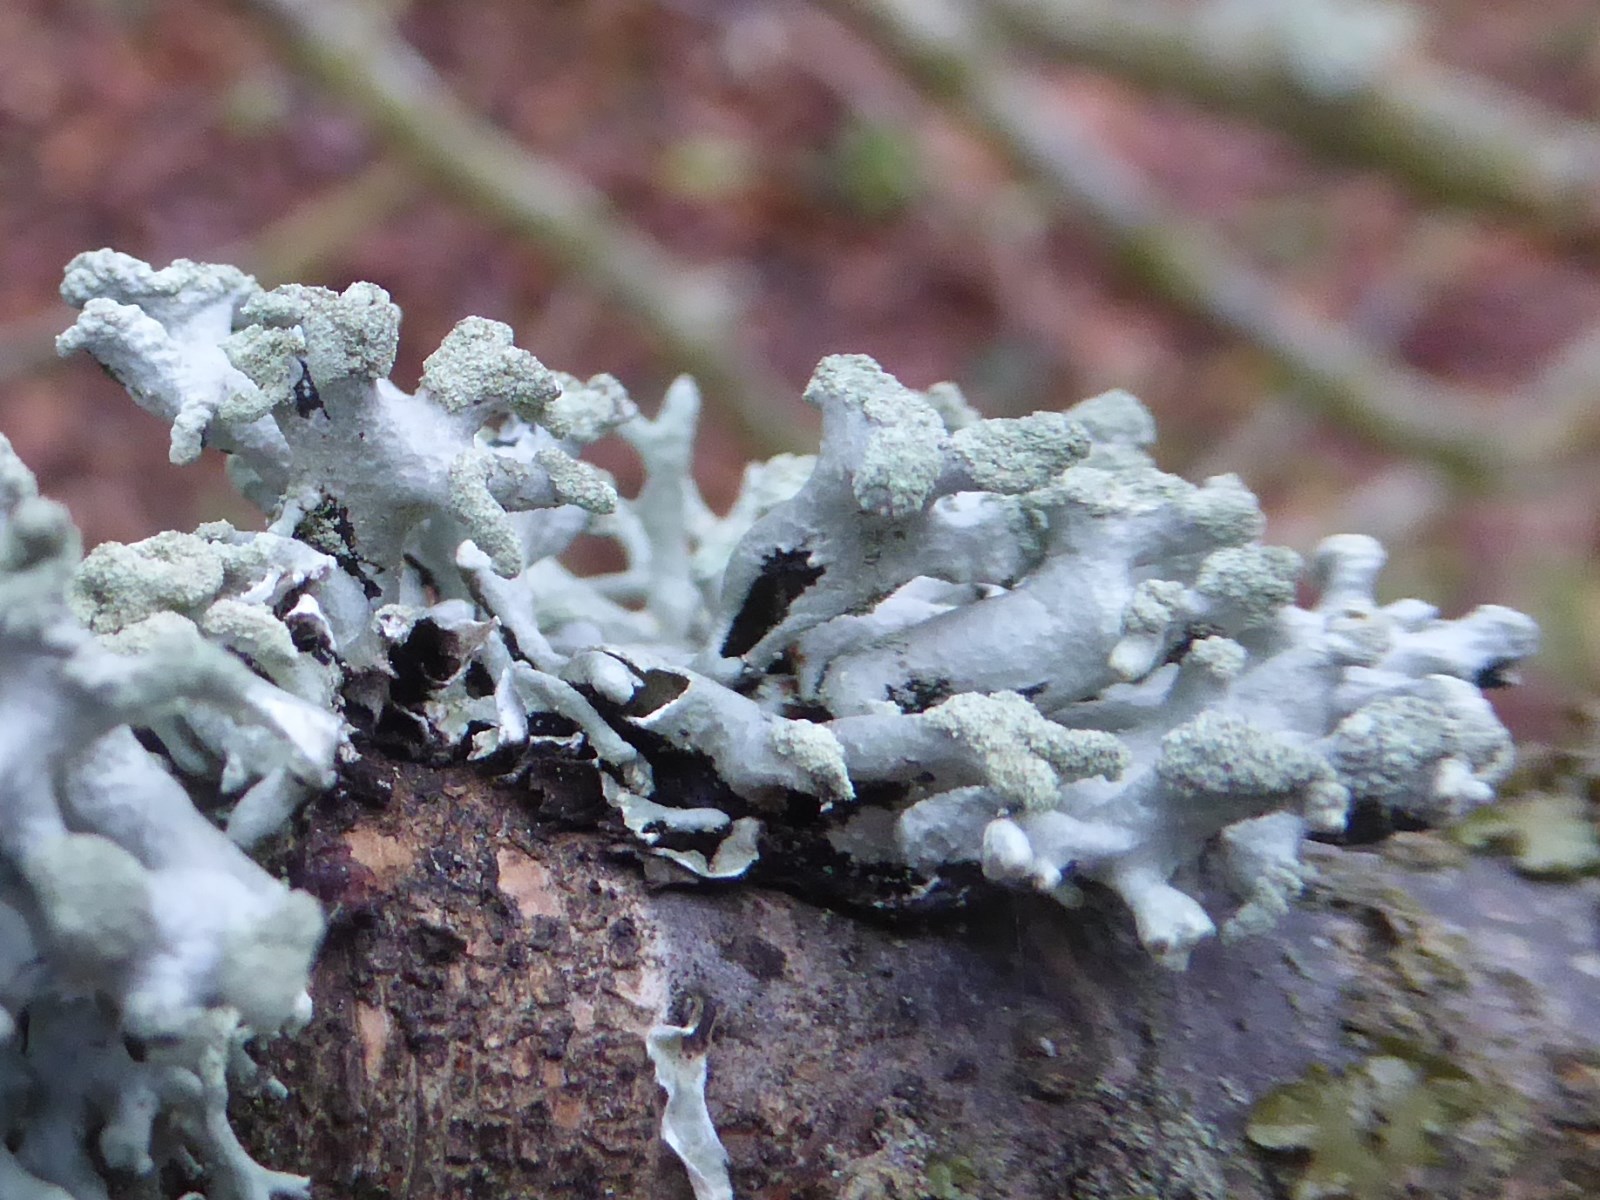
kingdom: Fungi
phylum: Ascomycota
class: Lecanoromycetes
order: Lecanorales
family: Parmeliaceae
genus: Hypogymnia
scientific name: Hypogymnia tubulosa
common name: finger-kvistlav
